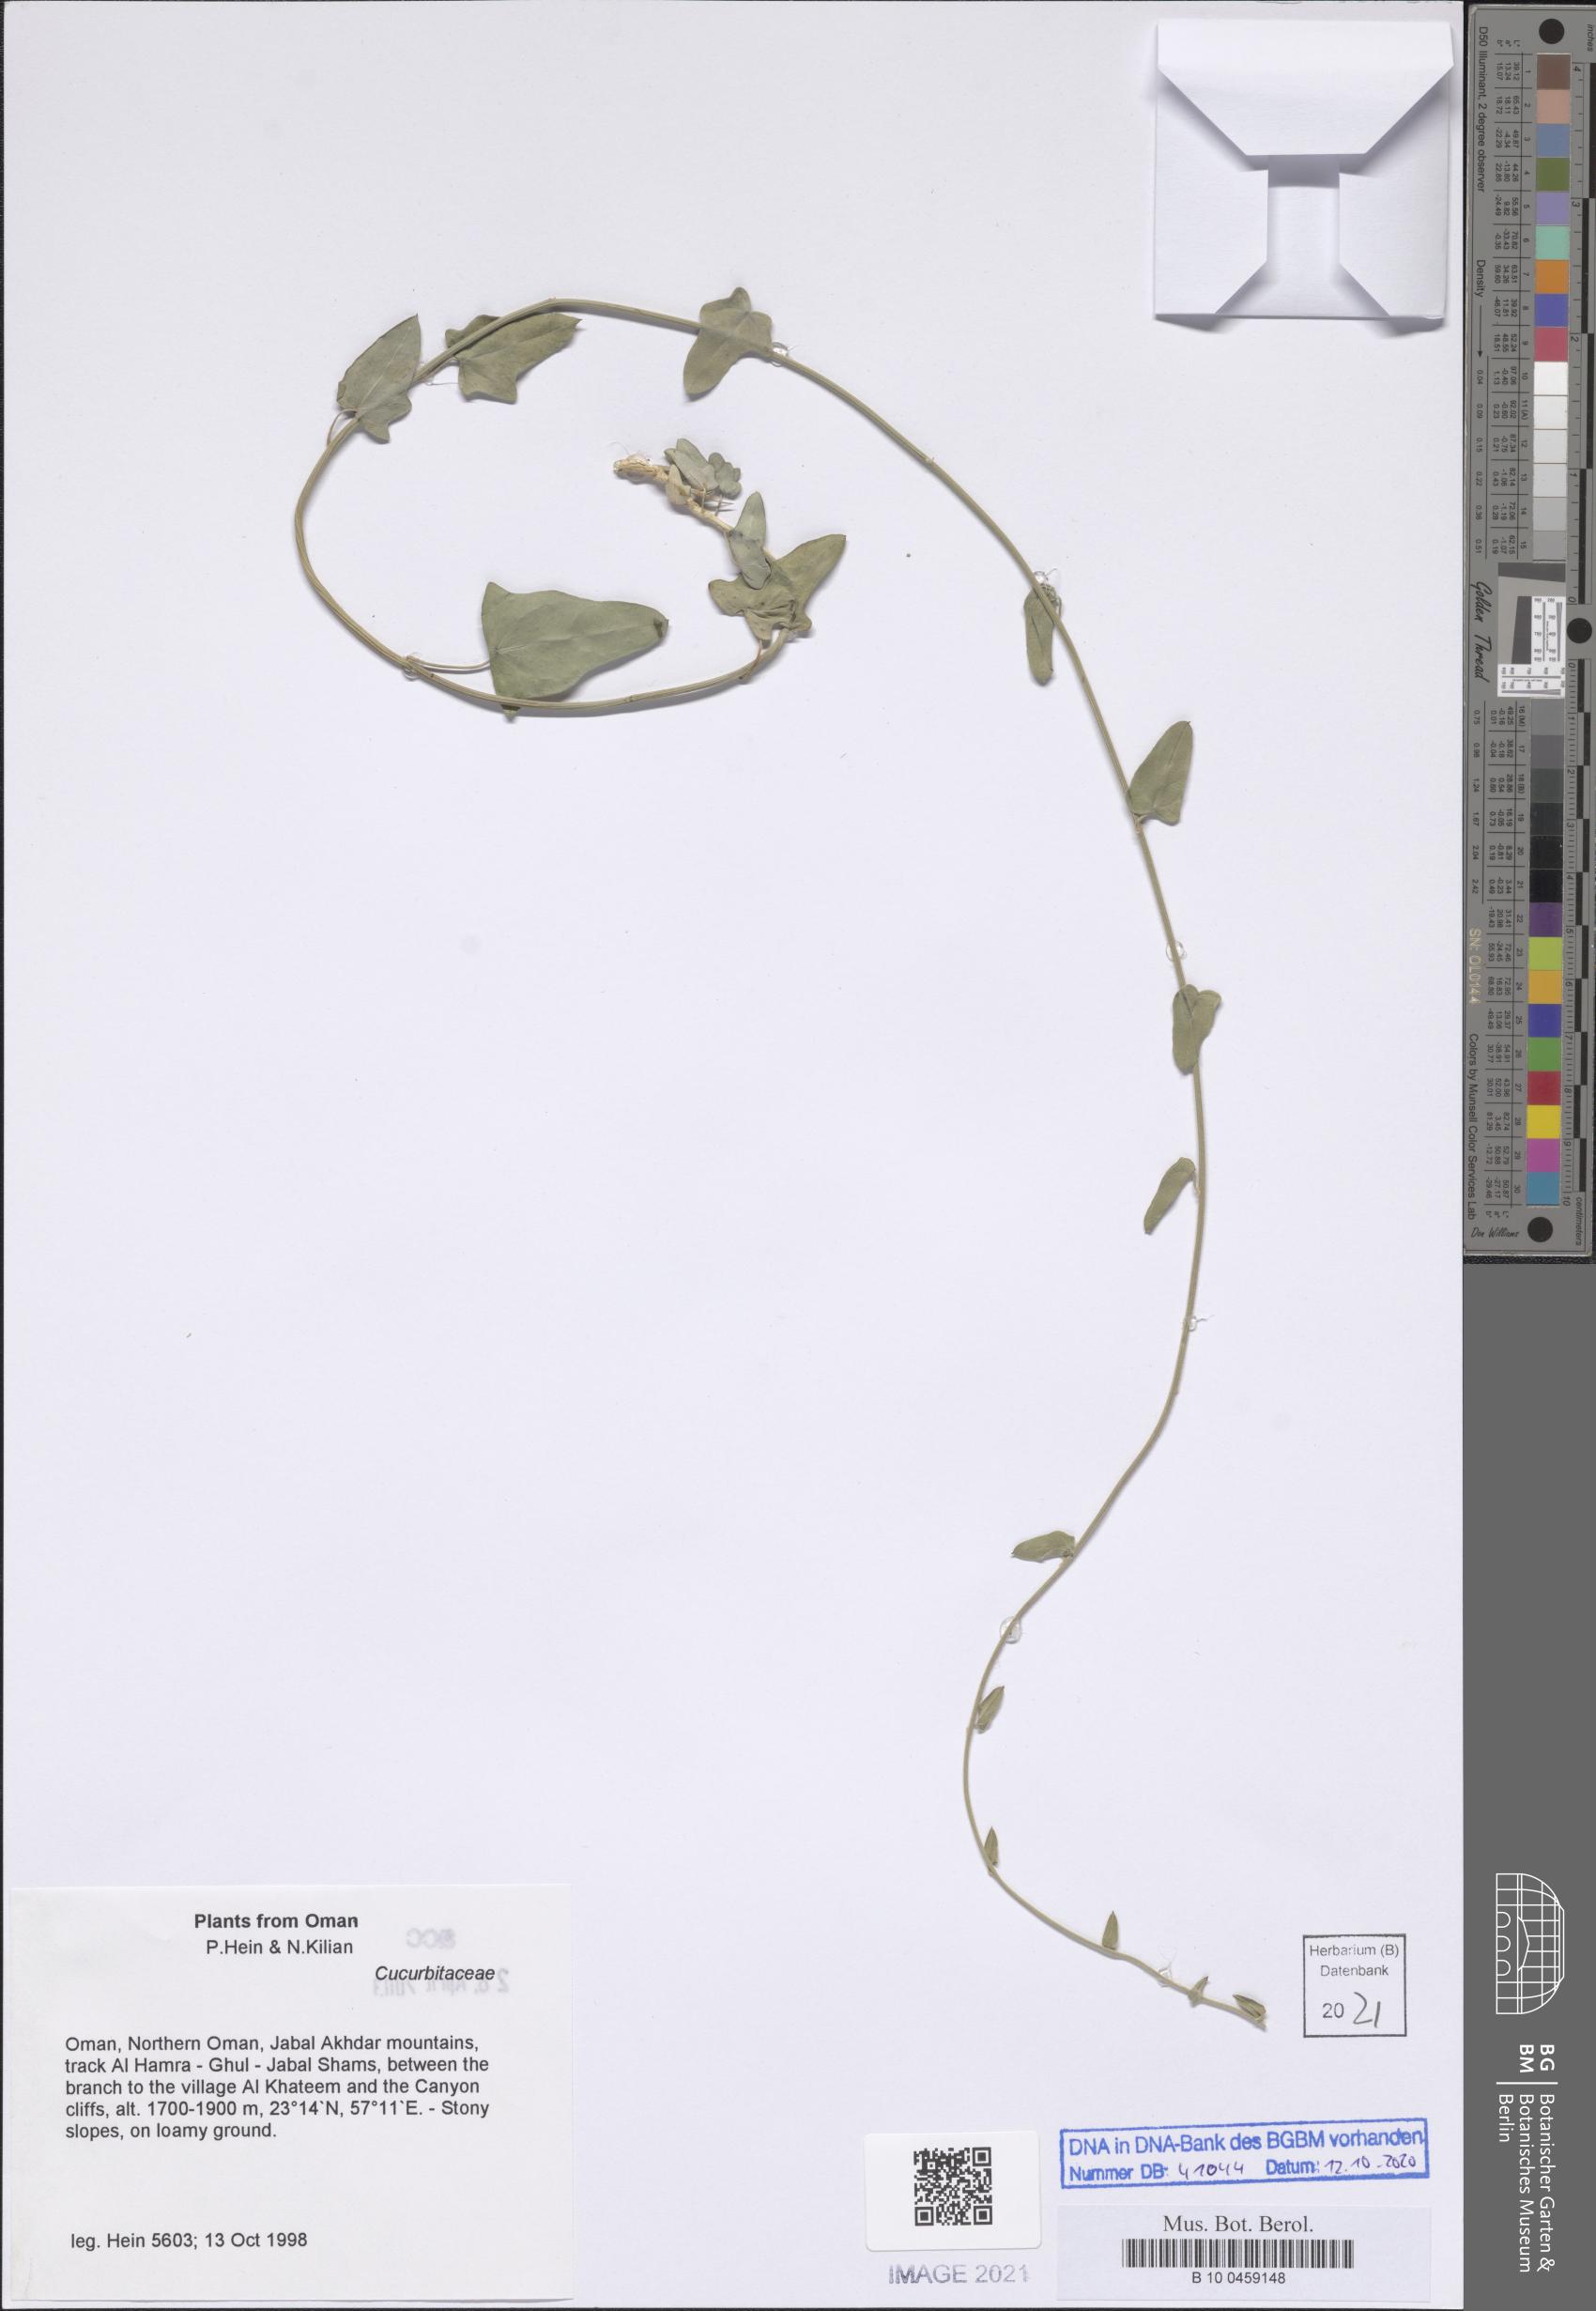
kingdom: Plantae
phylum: Tracheophyta
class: Magnoliopsida
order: Cucurbitales
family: Cucurbitaceae
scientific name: Cucurbitaceae
